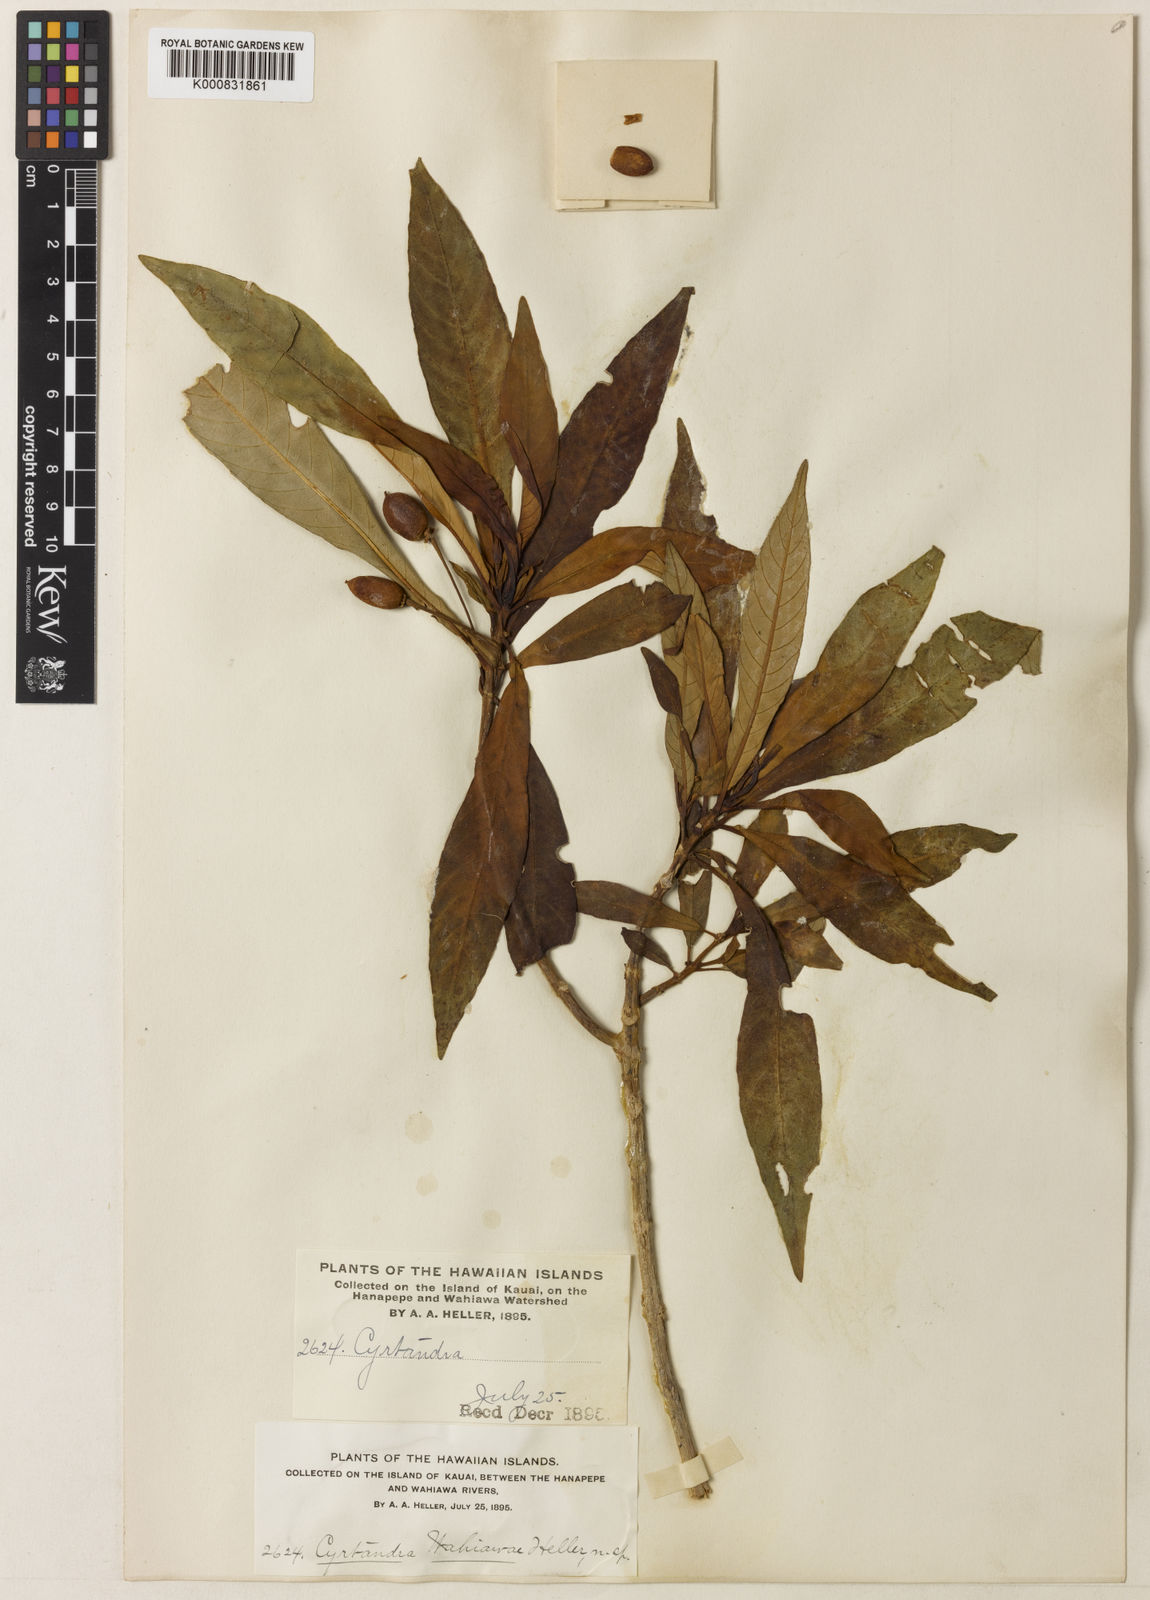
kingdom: Plantae
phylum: Tracheophyta
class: Magnoliopsida
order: Lamiales
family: Gesneriaceae
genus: Cyrtandra
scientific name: Cyrtandra
